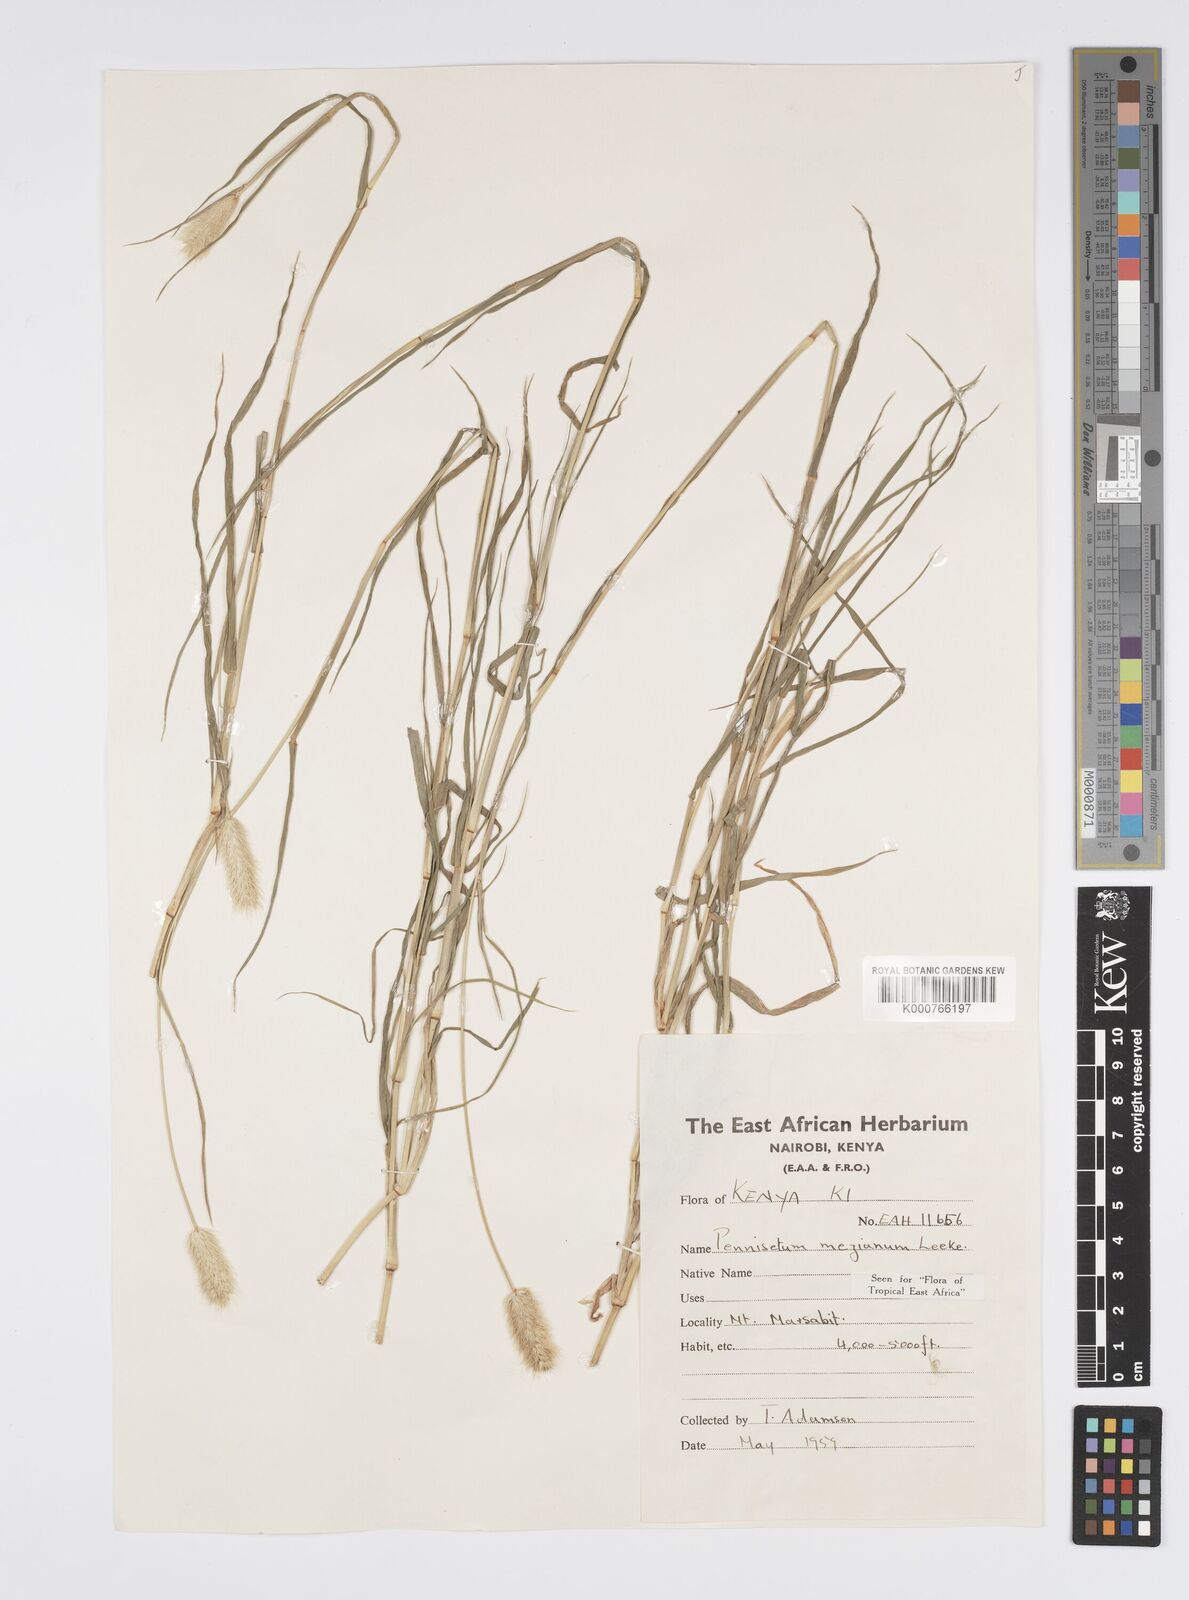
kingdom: Plantae
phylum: Tracheophyta
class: Liliopsida
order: Poales
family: Poaceae
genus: Cenchrus
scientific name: Cenchrus mezianus
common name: Bamboo grass
